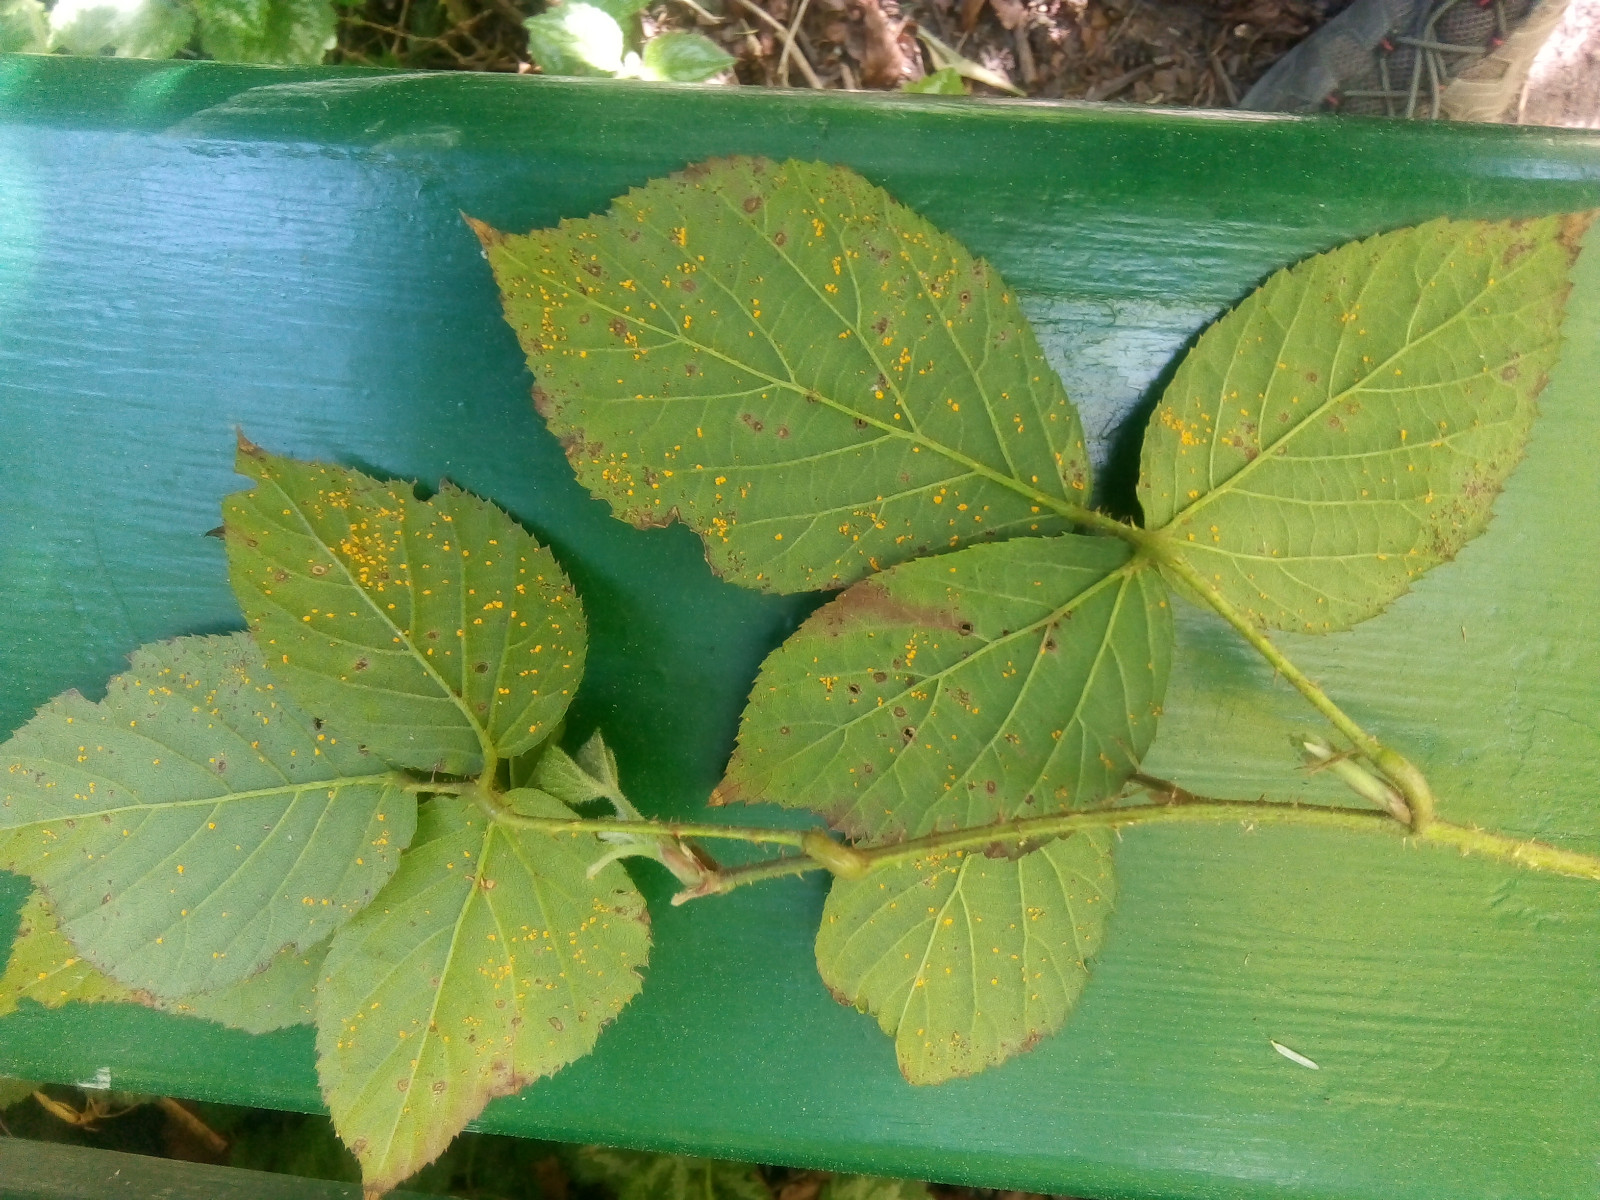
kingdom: Fungi
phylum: Basidiomycota
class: Pucciniomycetes
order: Pucciniales
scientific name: Pucciniales
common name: rustsvampeordenen
